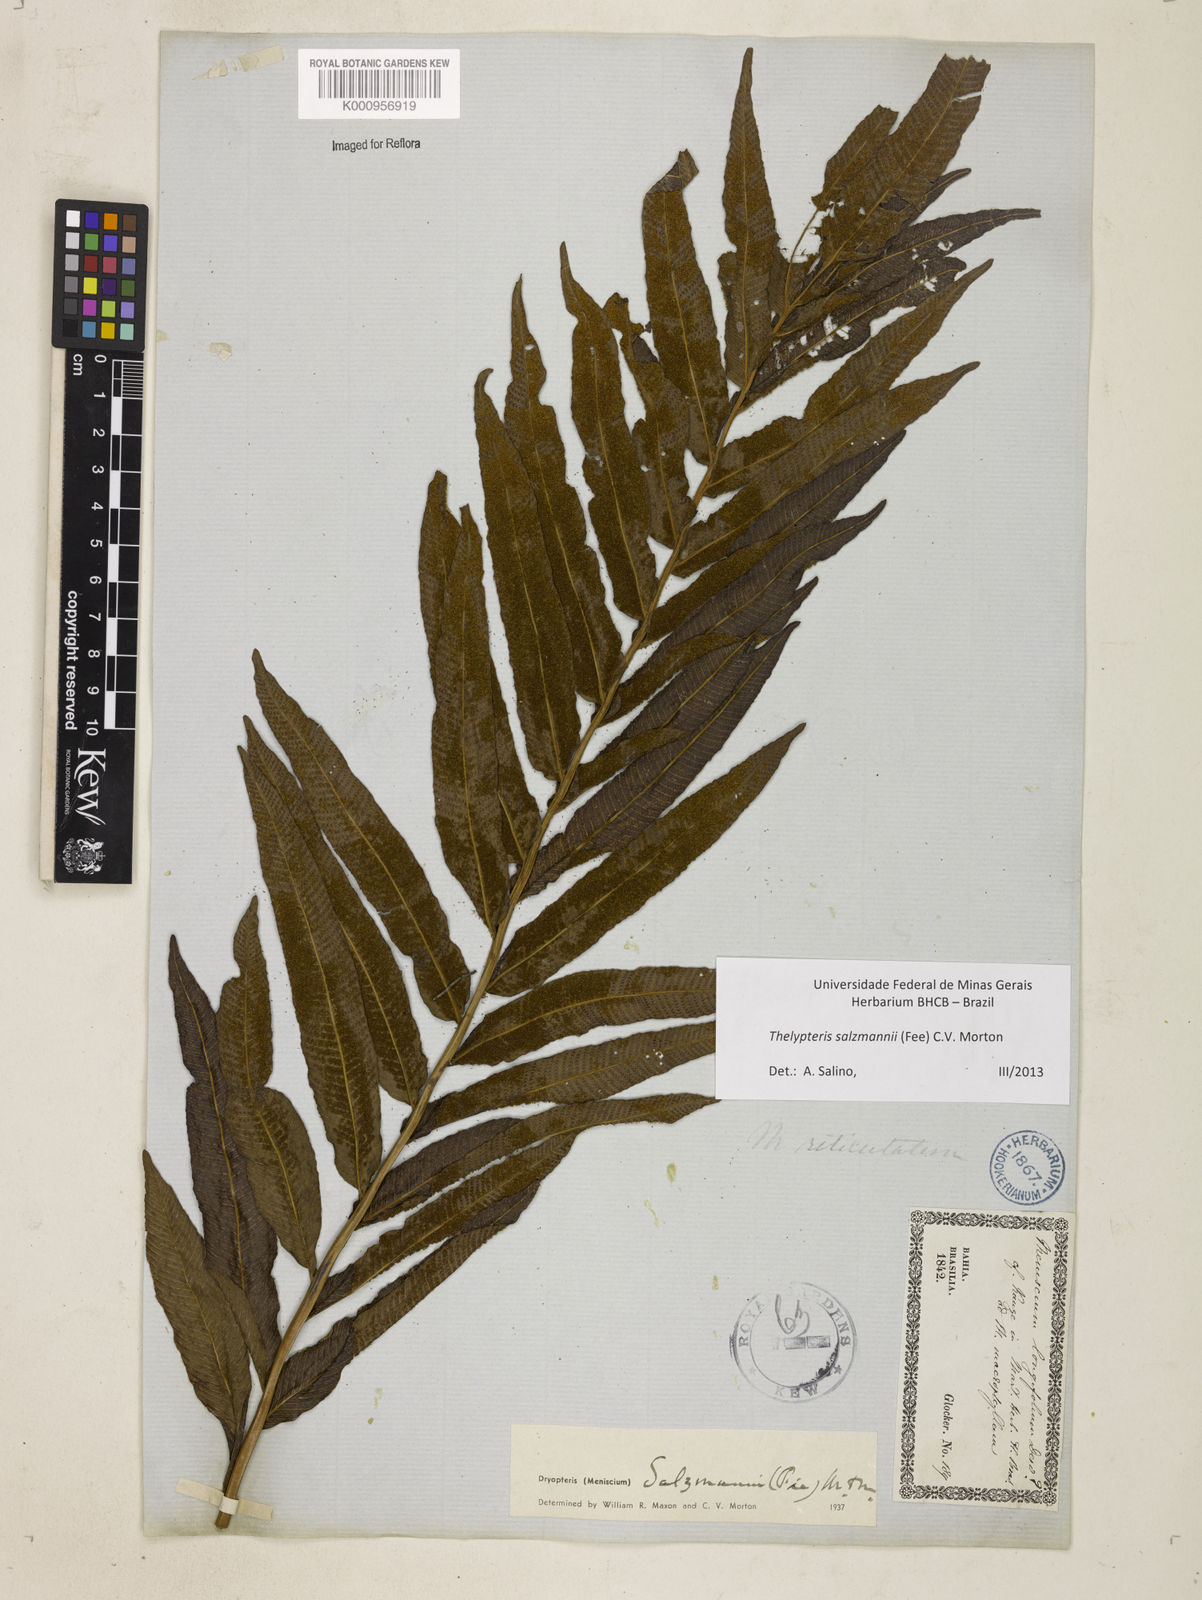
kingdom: Plantae
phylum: Tracheophyta
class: Polypodiopsida
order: Polypodiales
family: Thelypteridaceae
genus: Meniscium
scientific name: Meniscium arborescens
